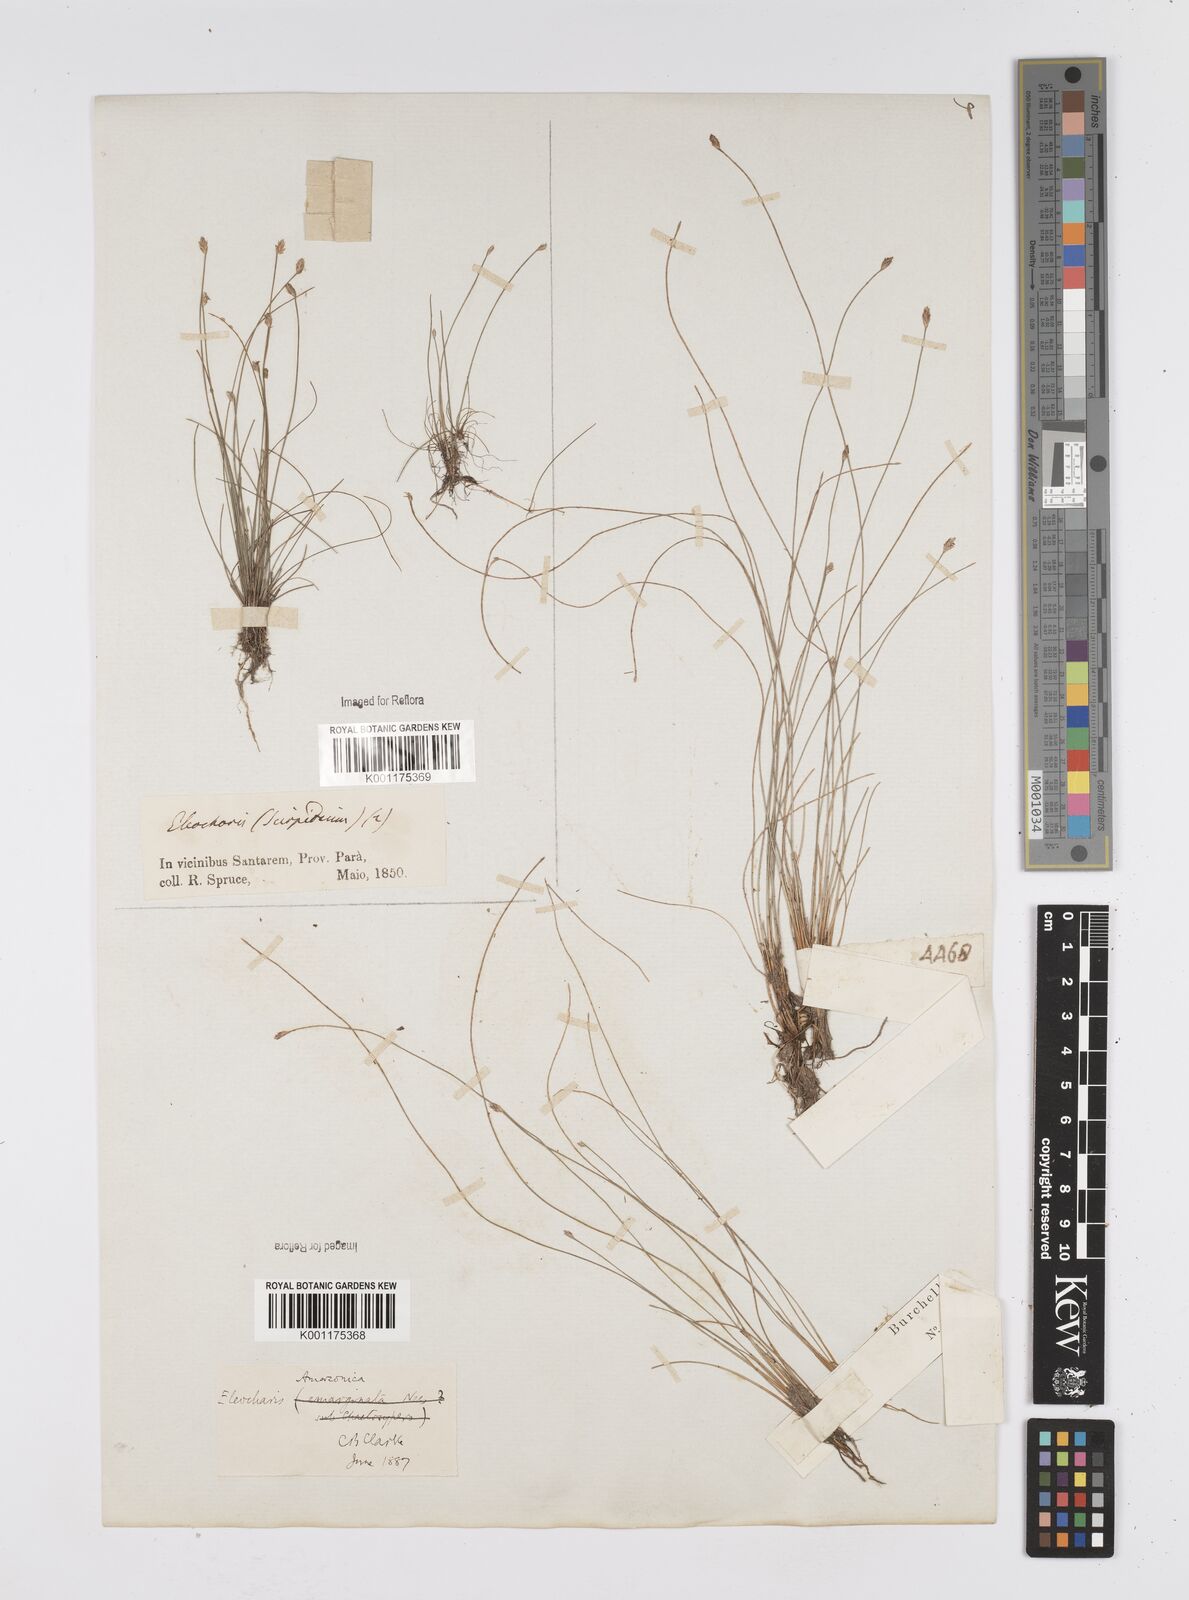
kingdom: Plantae
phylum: Tracheophyta
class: Liliopsida
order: Poales
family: Cyperaceae
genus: Eleocharis
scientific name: Eleocharis amazonica
